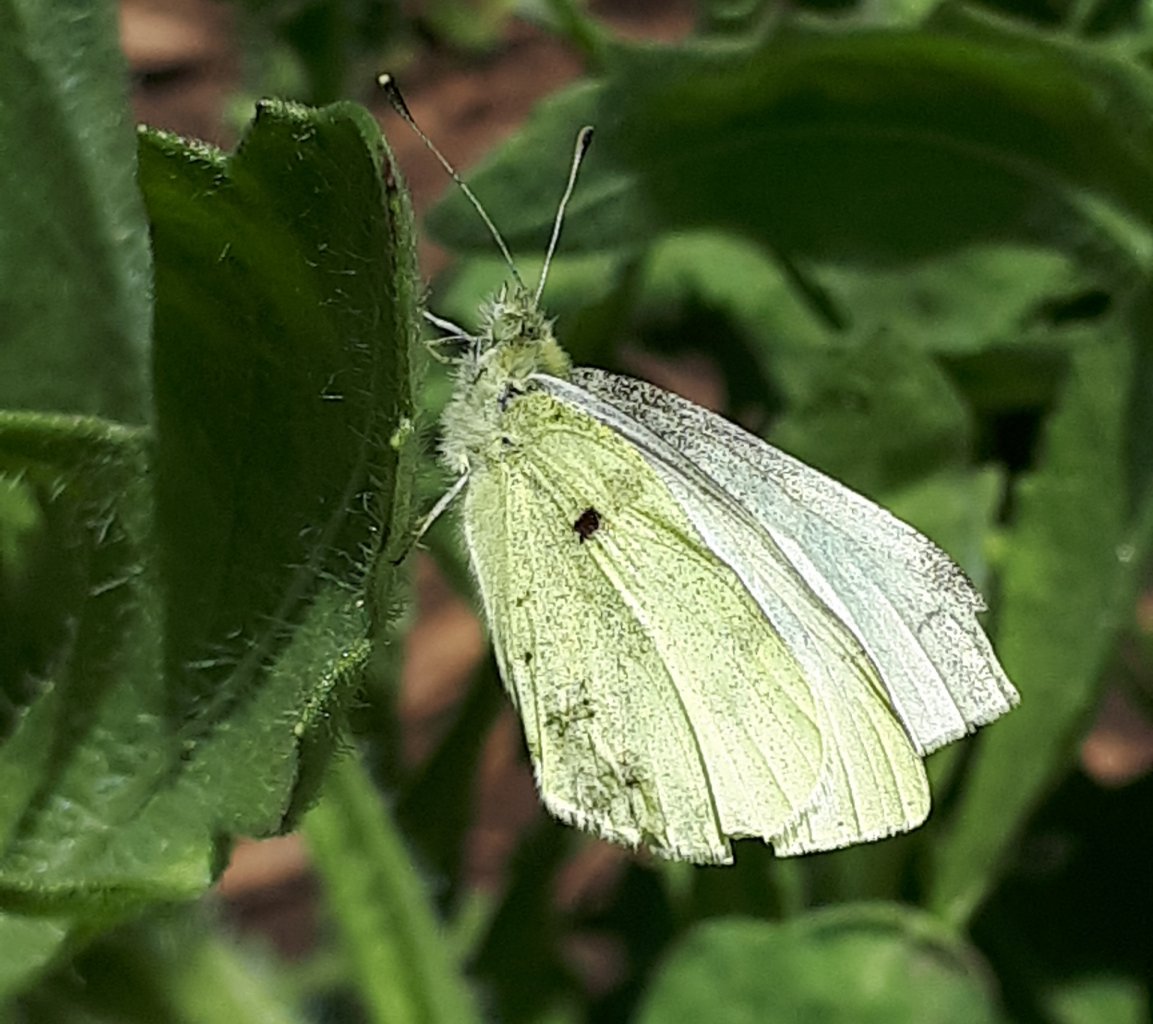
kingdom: Animalia
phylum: Arthropoda
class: Insecta
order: Lepidoptera
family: Pieridae
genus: Pieris
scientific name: Pieris rapae
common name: Cabbage White
